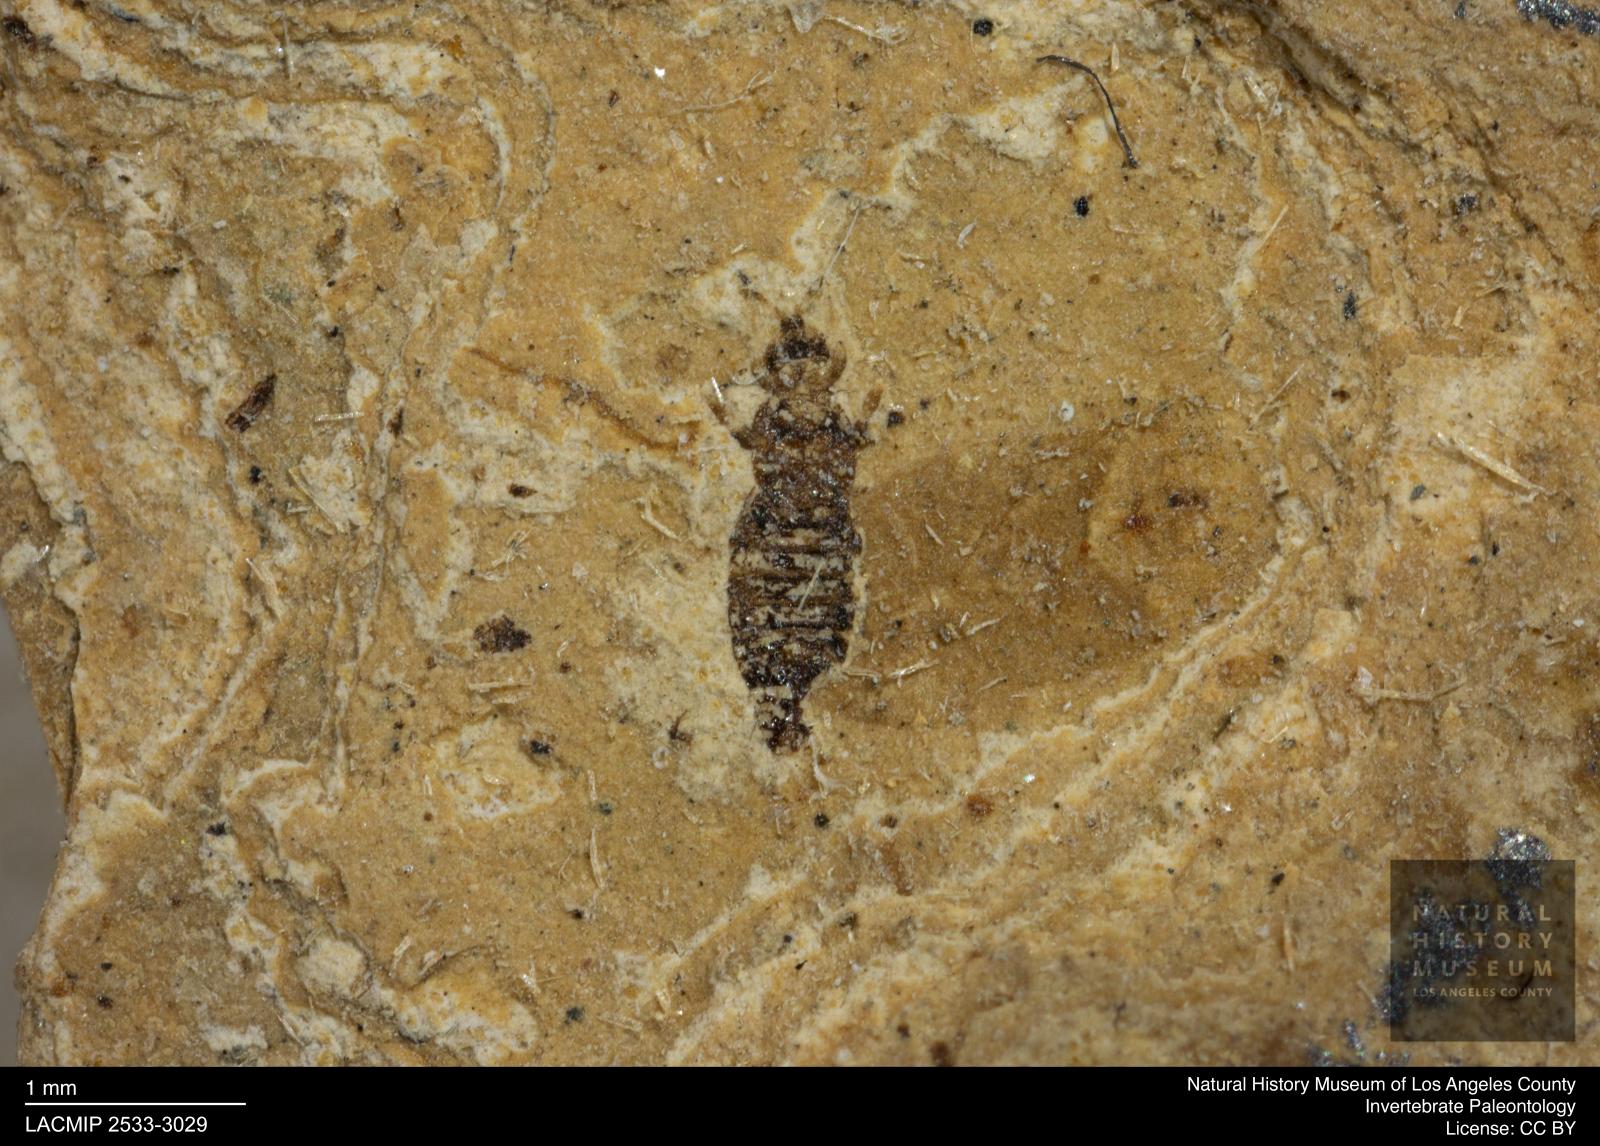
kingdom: Animalia
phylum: Arthropoda
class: Insecta
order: Thysanoptera
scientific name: Thysanoptera
